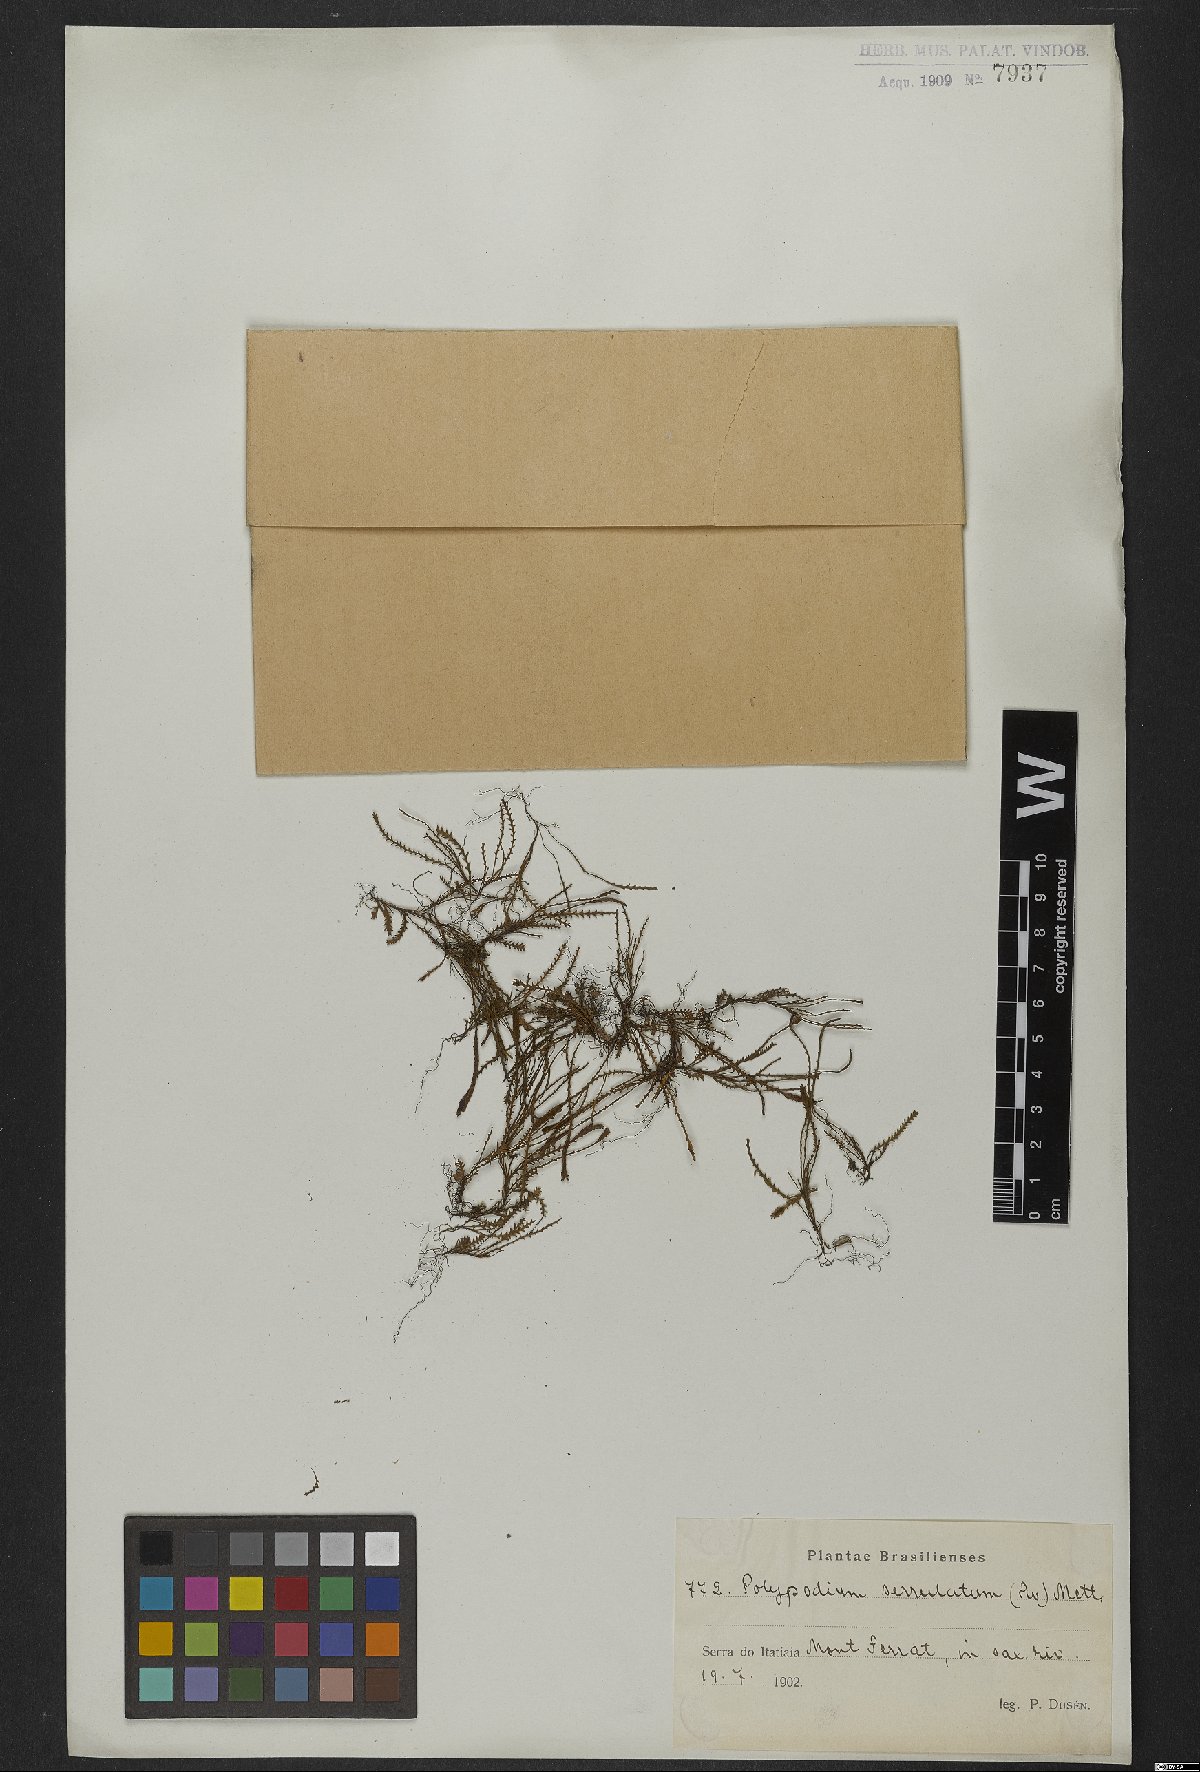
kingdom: Plantae
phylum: Tracheophyta
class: Polypodiopsida
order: Polypodiales
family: Polypodiaceae
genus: Cochlidium
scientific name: Cochlidium serrulatum
